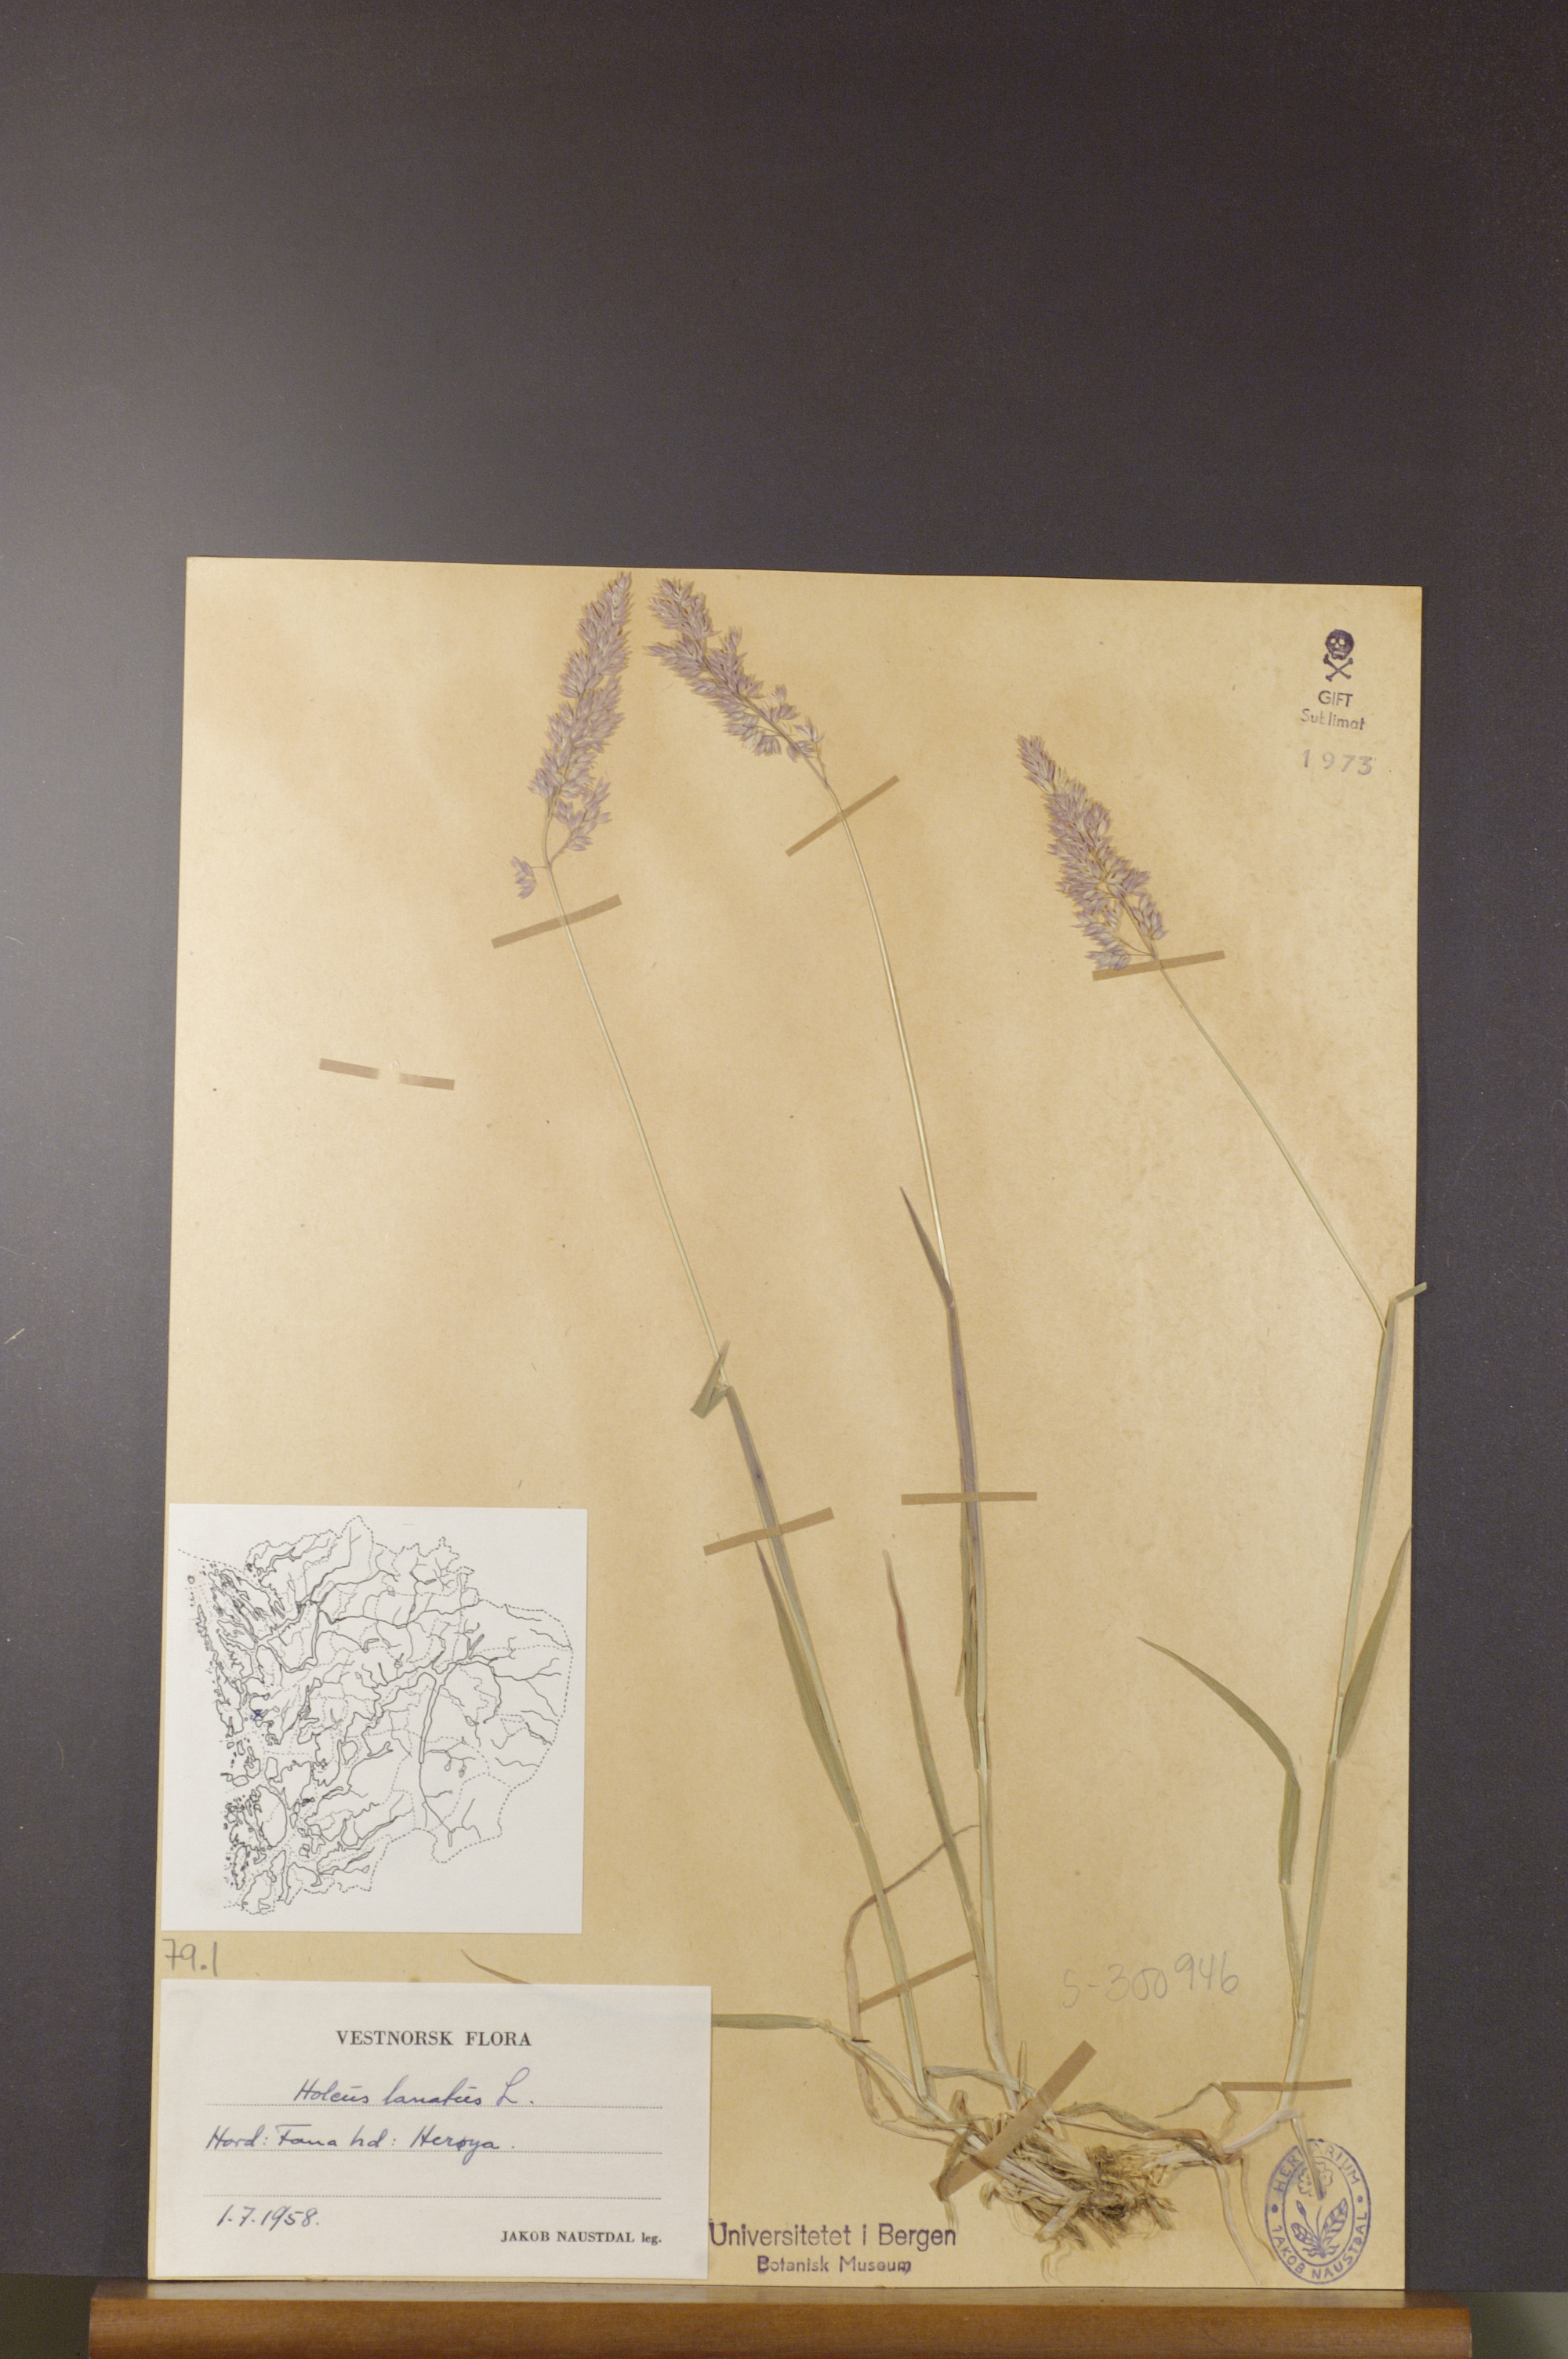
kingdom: Plantae
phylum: Tracheophyta
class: Liliopsida
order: Poales
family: Poaceae
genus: Holcus
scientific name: Holcus lanatus
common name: Yorkshire-fog
